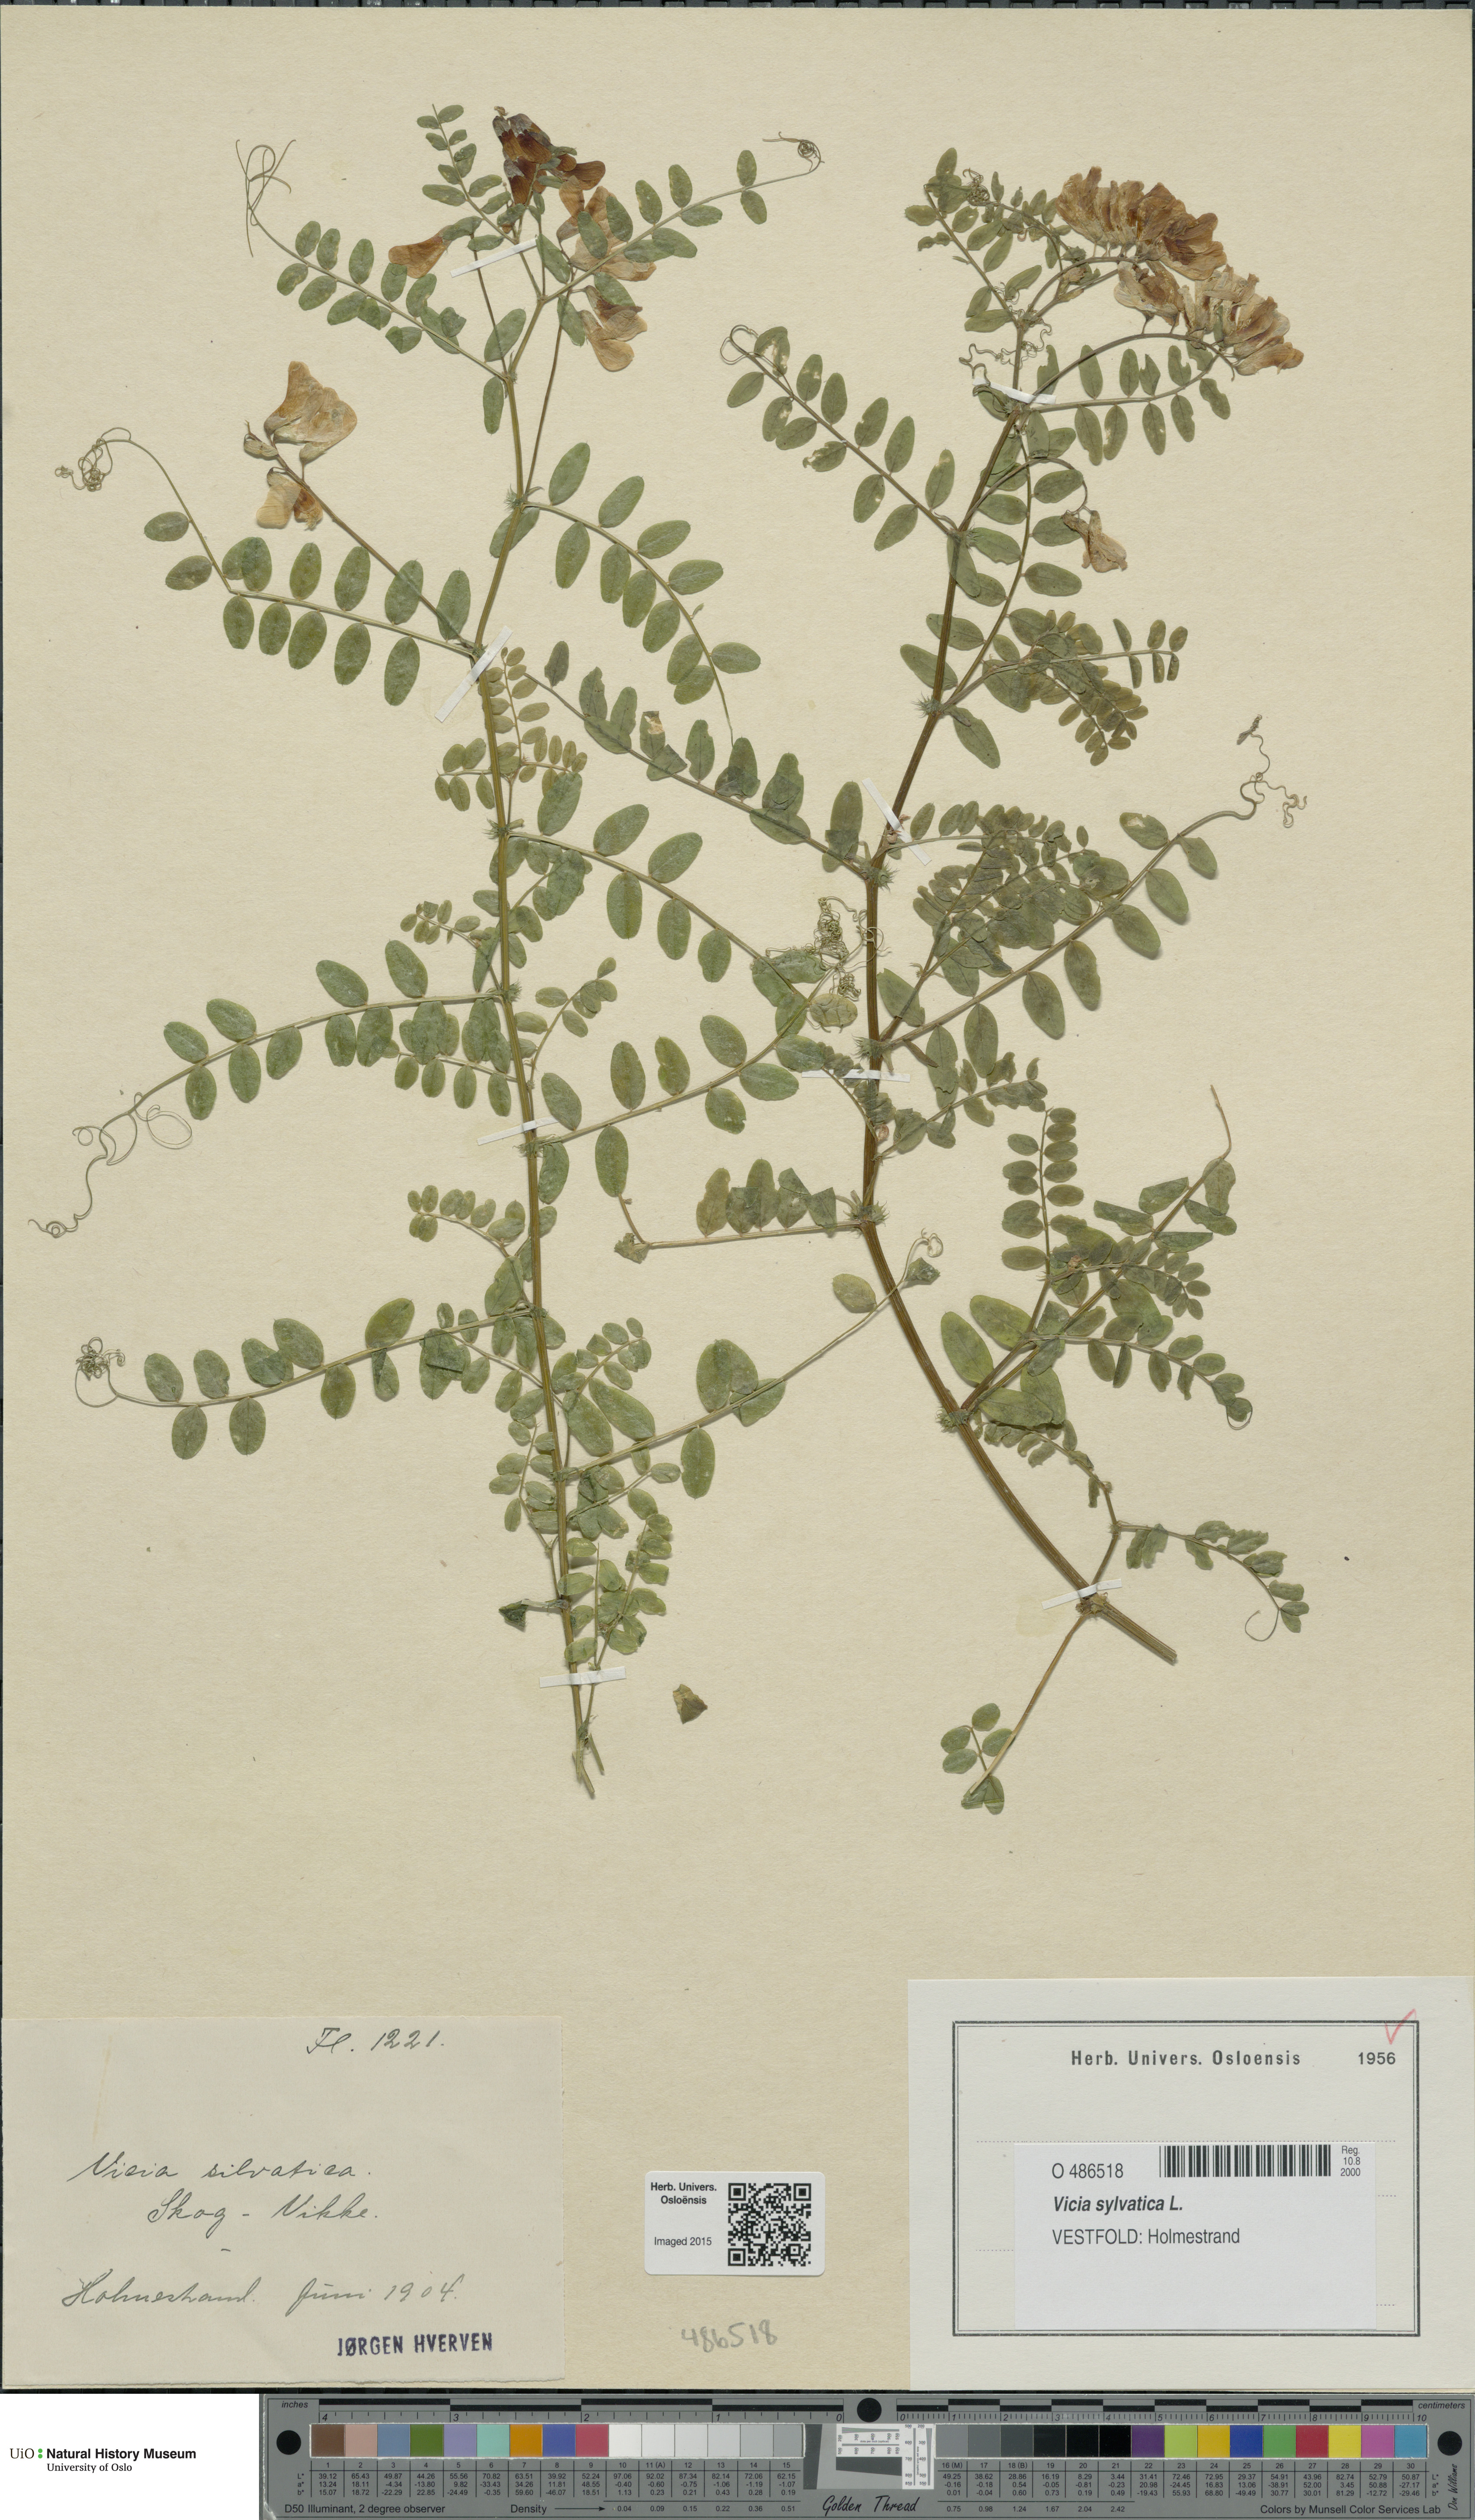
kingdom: Plantae
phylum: Tracheophyta
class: Magnoliopsida
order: Fabales
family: Fabaceae
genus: Vicia
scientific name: Vicia sylvatica
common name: Wood vetch
